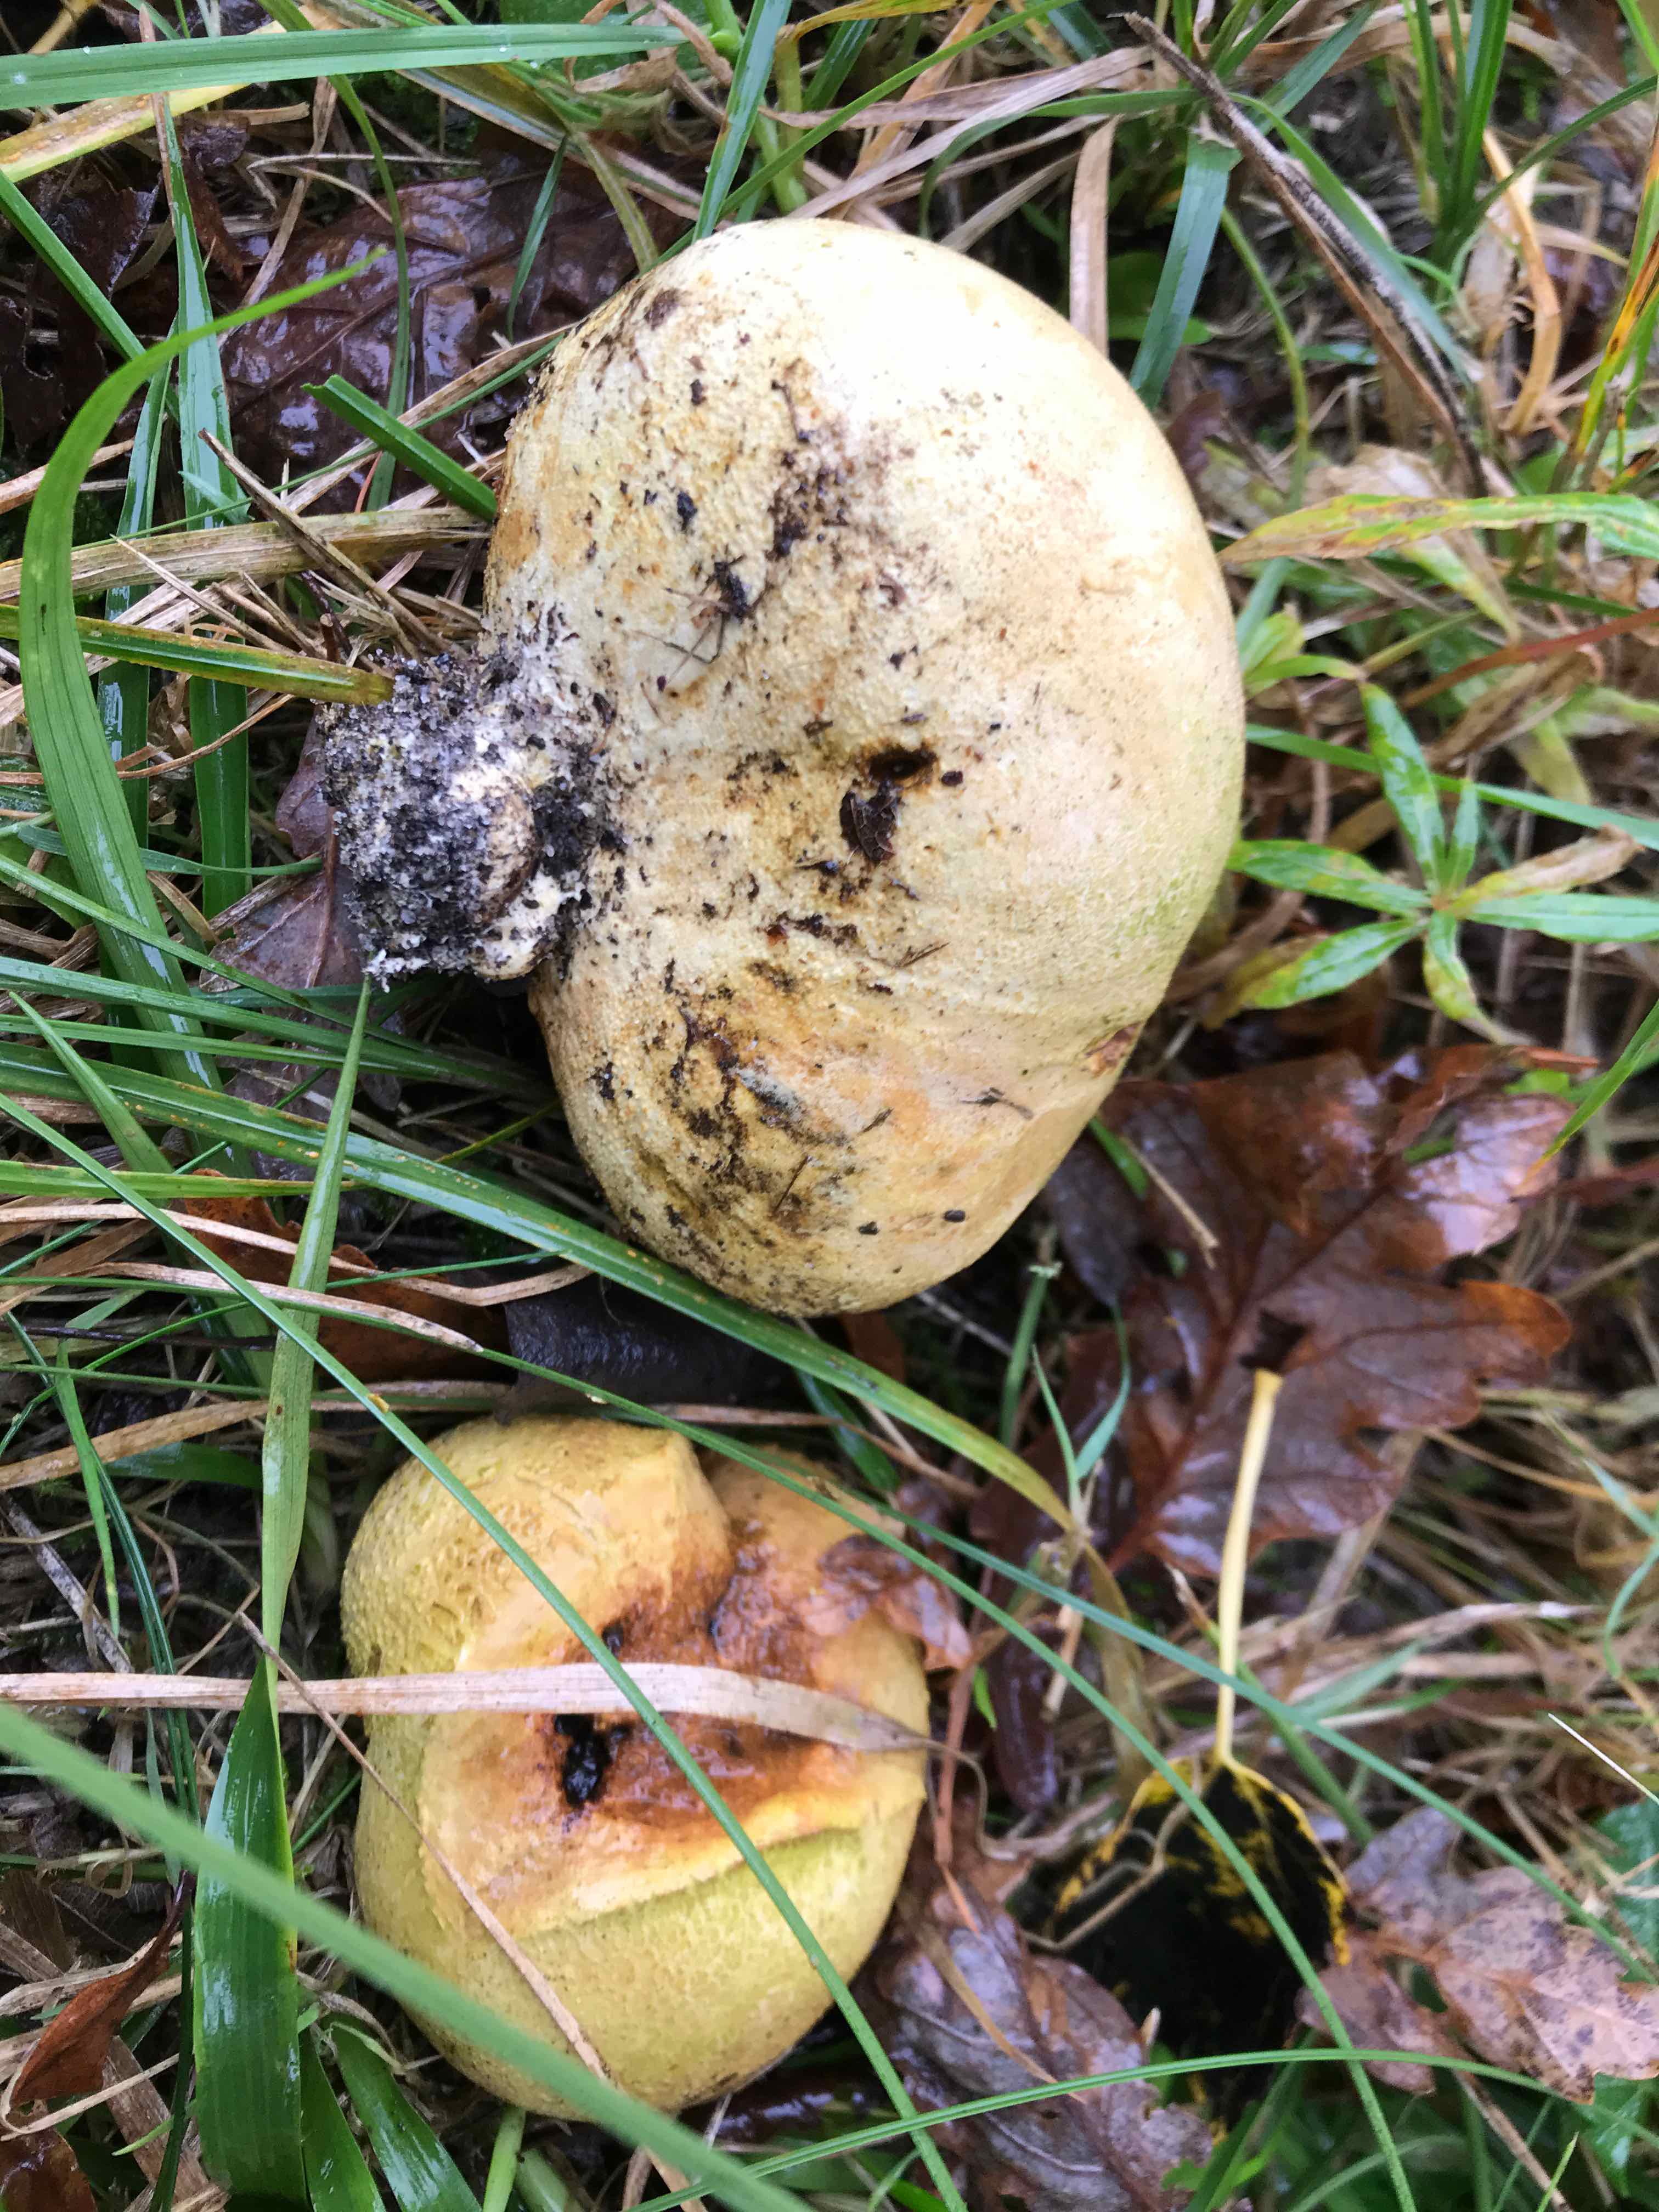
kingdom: Fungi
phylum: Basidiomycota
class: Agaricomycetes
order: Boletales
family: Sclerodermataceae
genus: Scleroderma
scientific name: Scleroderma citrinum
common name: almindelig bruskbold
